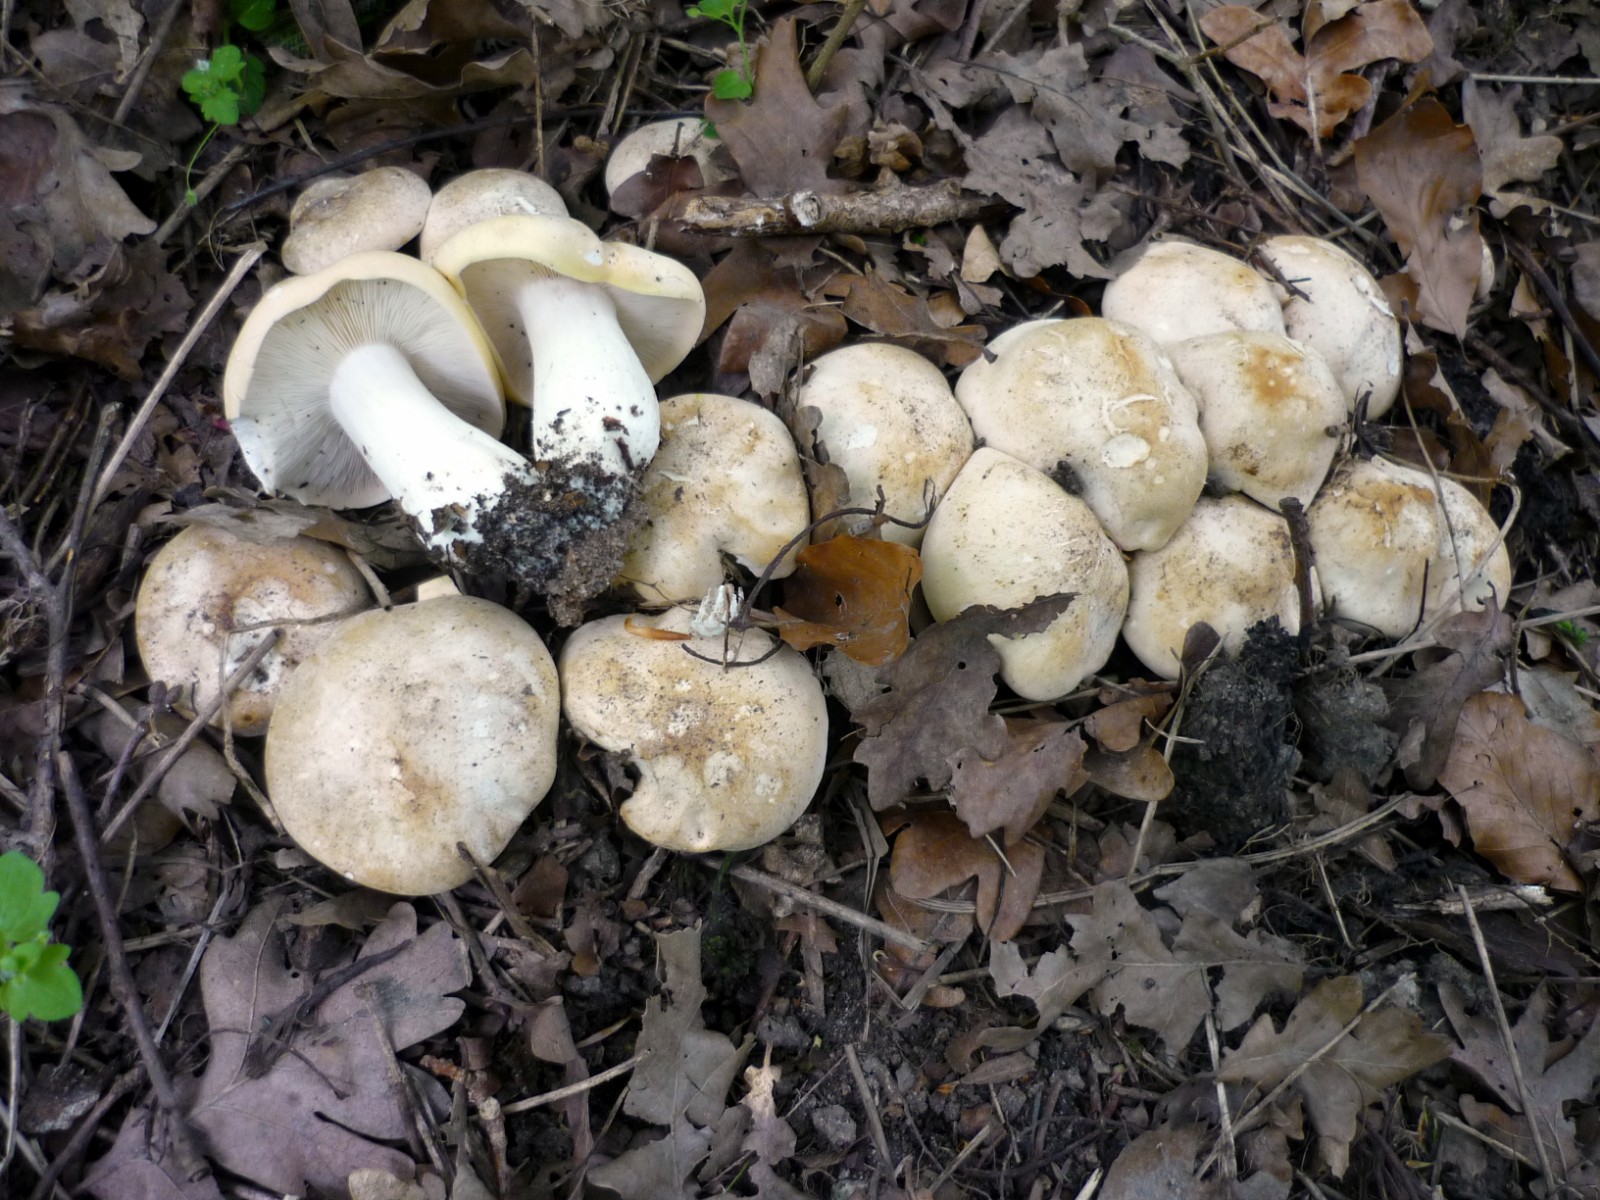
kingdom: Fungi
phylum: Basidiomycota
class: Agaricomycetes
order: Agaricales
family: Lyophyllaceae
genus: Calocybe
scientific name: Calocybe gambosa
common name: vårmusseron
